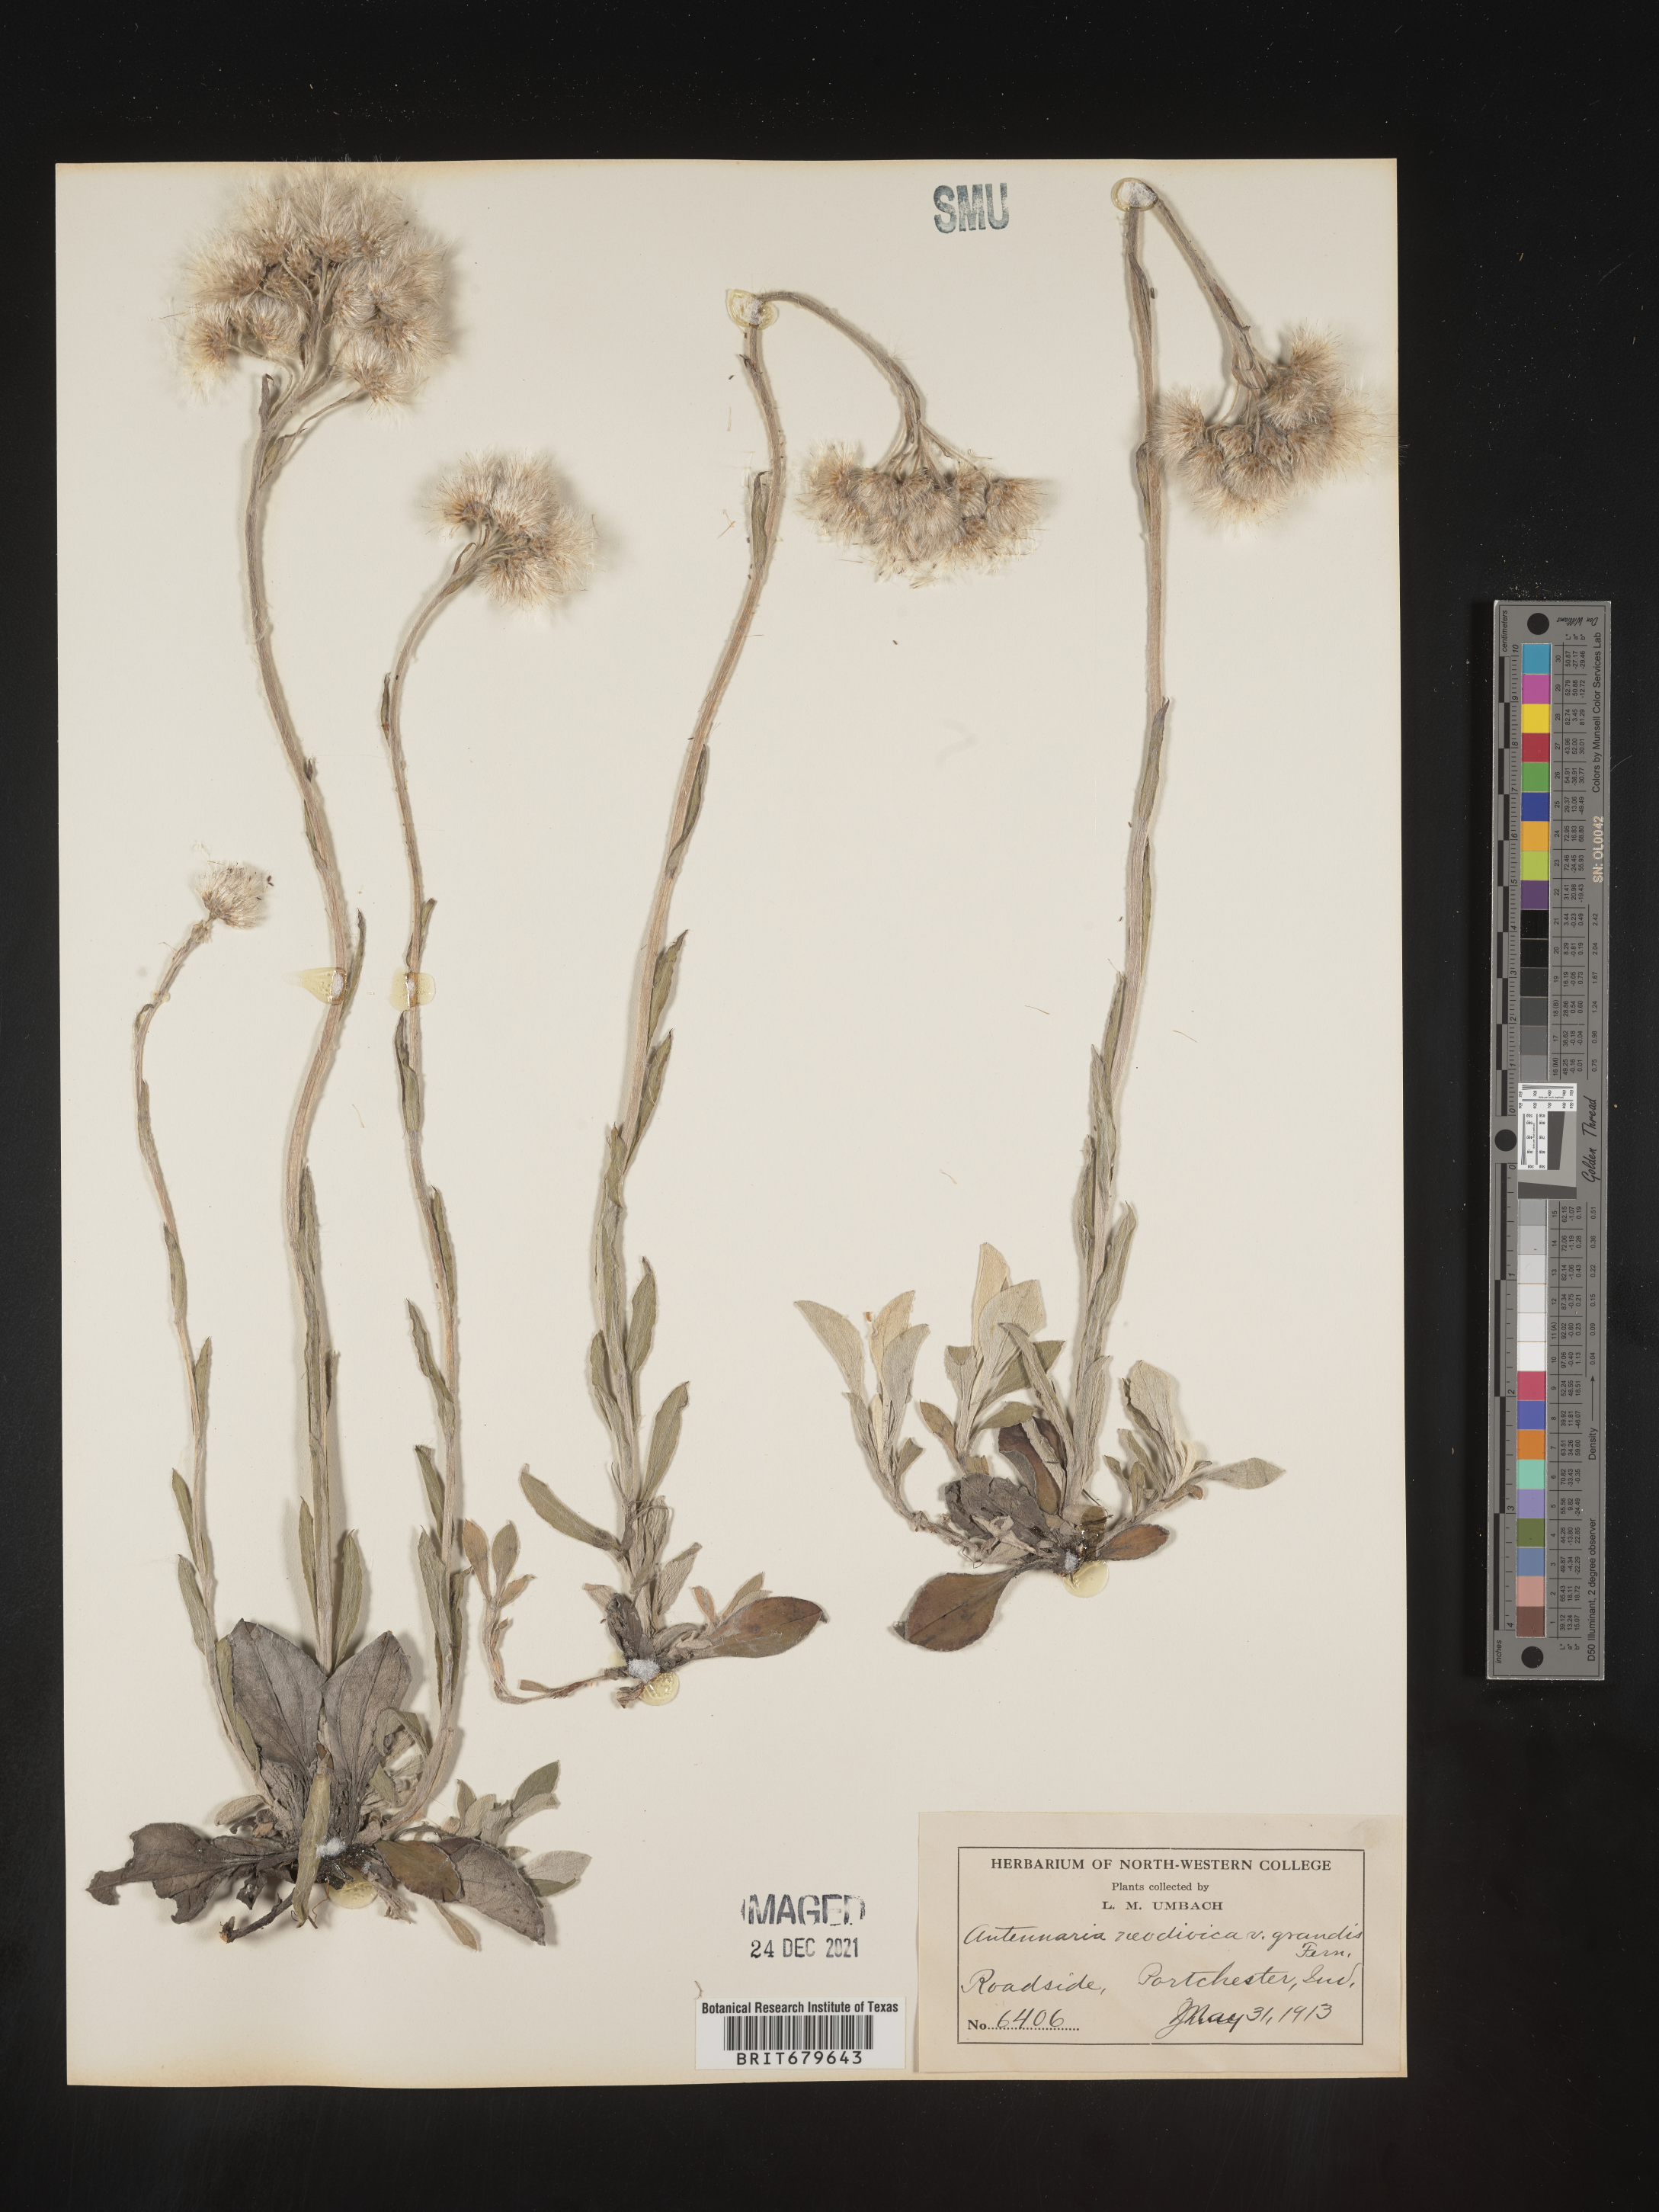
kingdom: Plantae
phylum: Tracheophyta
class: Magnoliopsida
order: Asterales
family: Asteraceae
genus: Antennaria
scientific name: Antennaria howellii
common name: Howell's pussytoes
